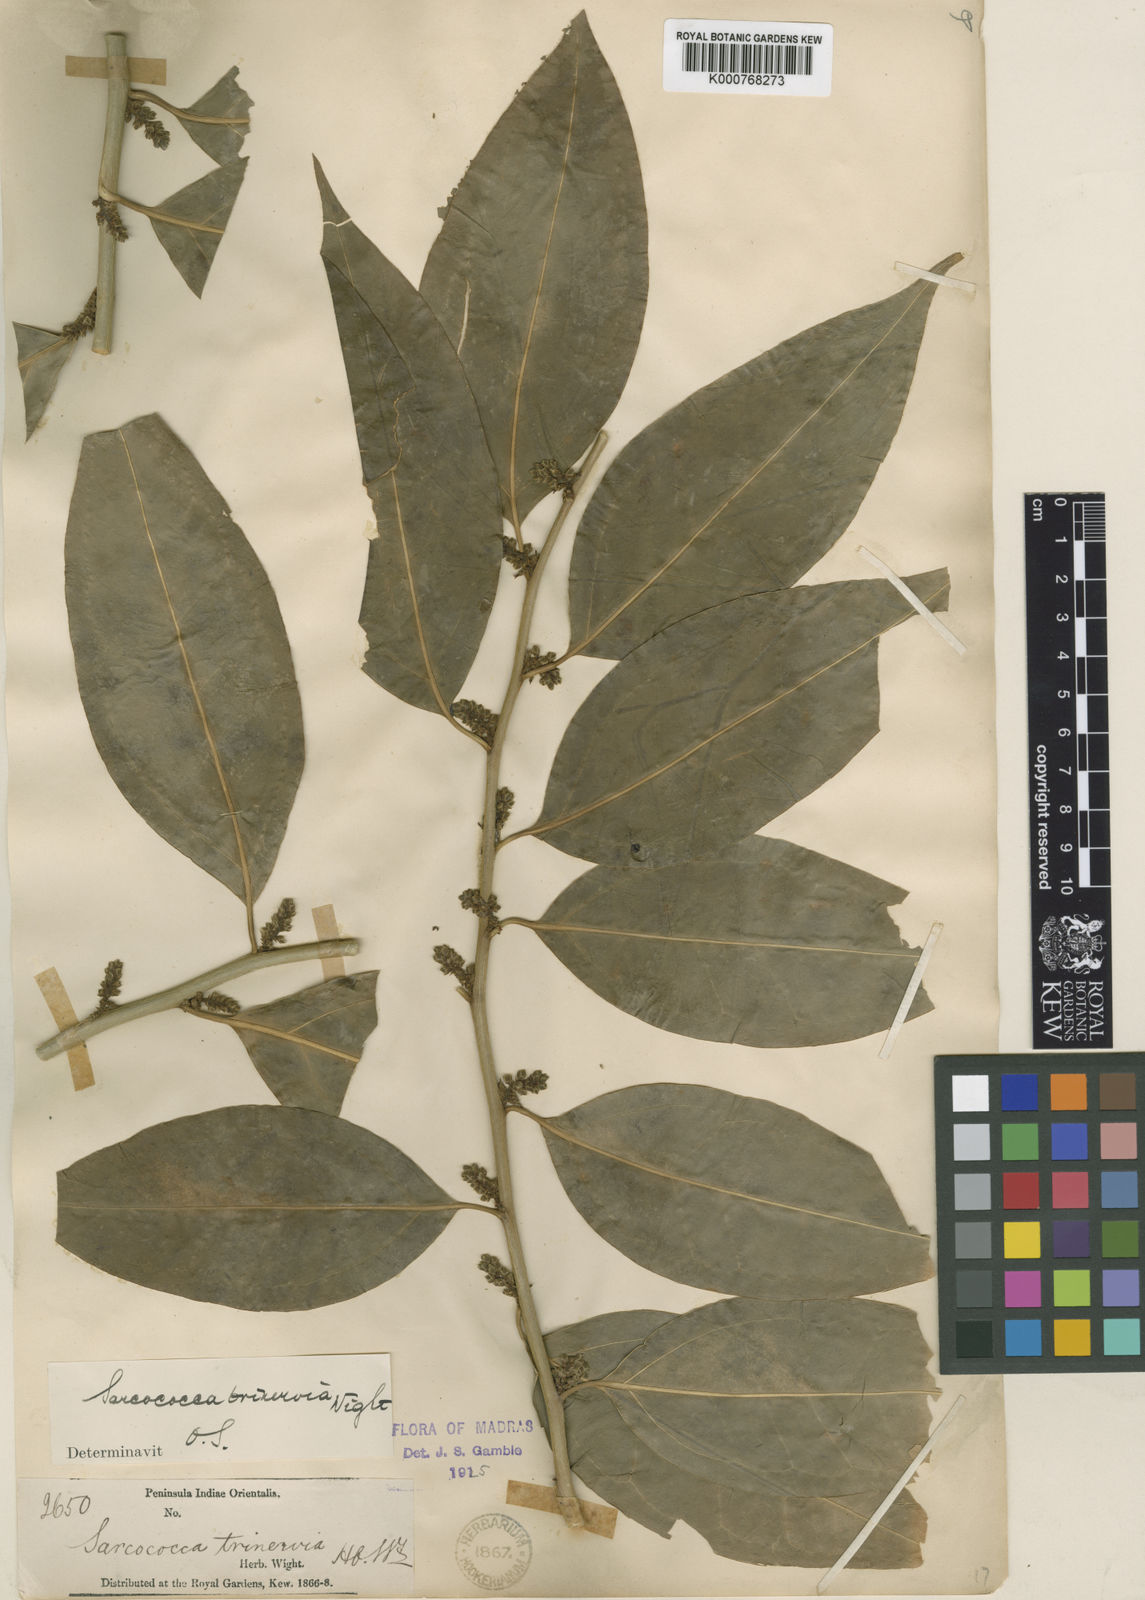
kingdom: Plantae
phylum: Tracheophyta
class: Magnoliopsida
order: Buxales
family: Buxaceae
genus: Sarcococca
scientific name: Sarcococca coriacea
